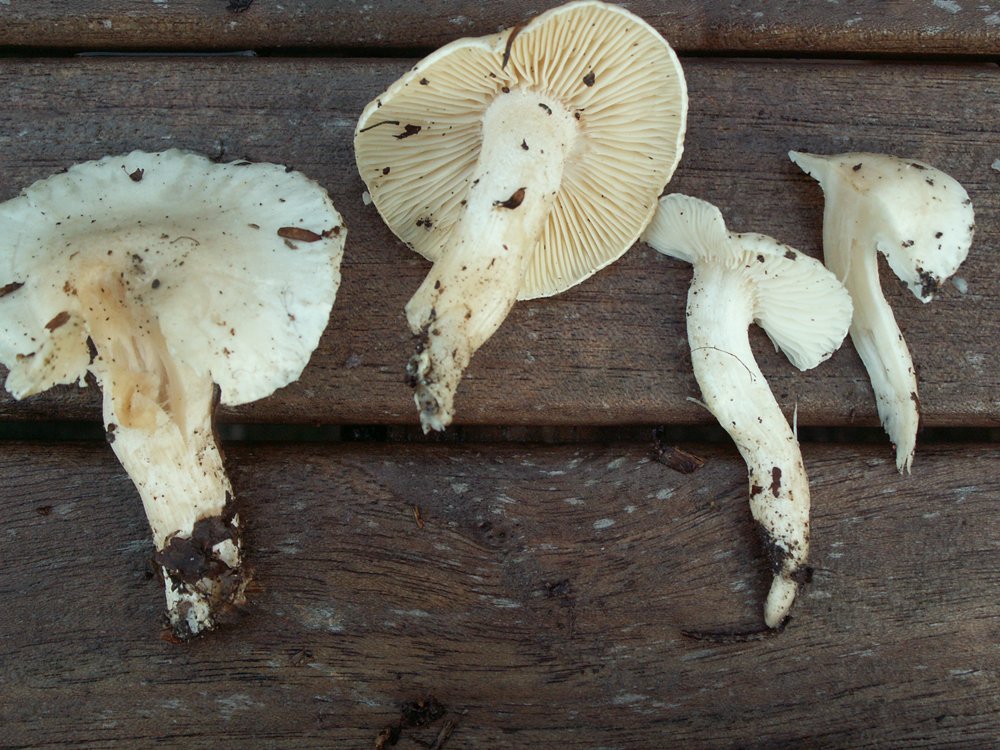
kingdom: Fungi
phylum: Basidiomycota
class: Agaricomycetes
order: Agaricales
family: Hygrophoraceae
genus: Hygrophorus
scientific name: Hygrophorus penarius
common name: spiselig sneglehat
